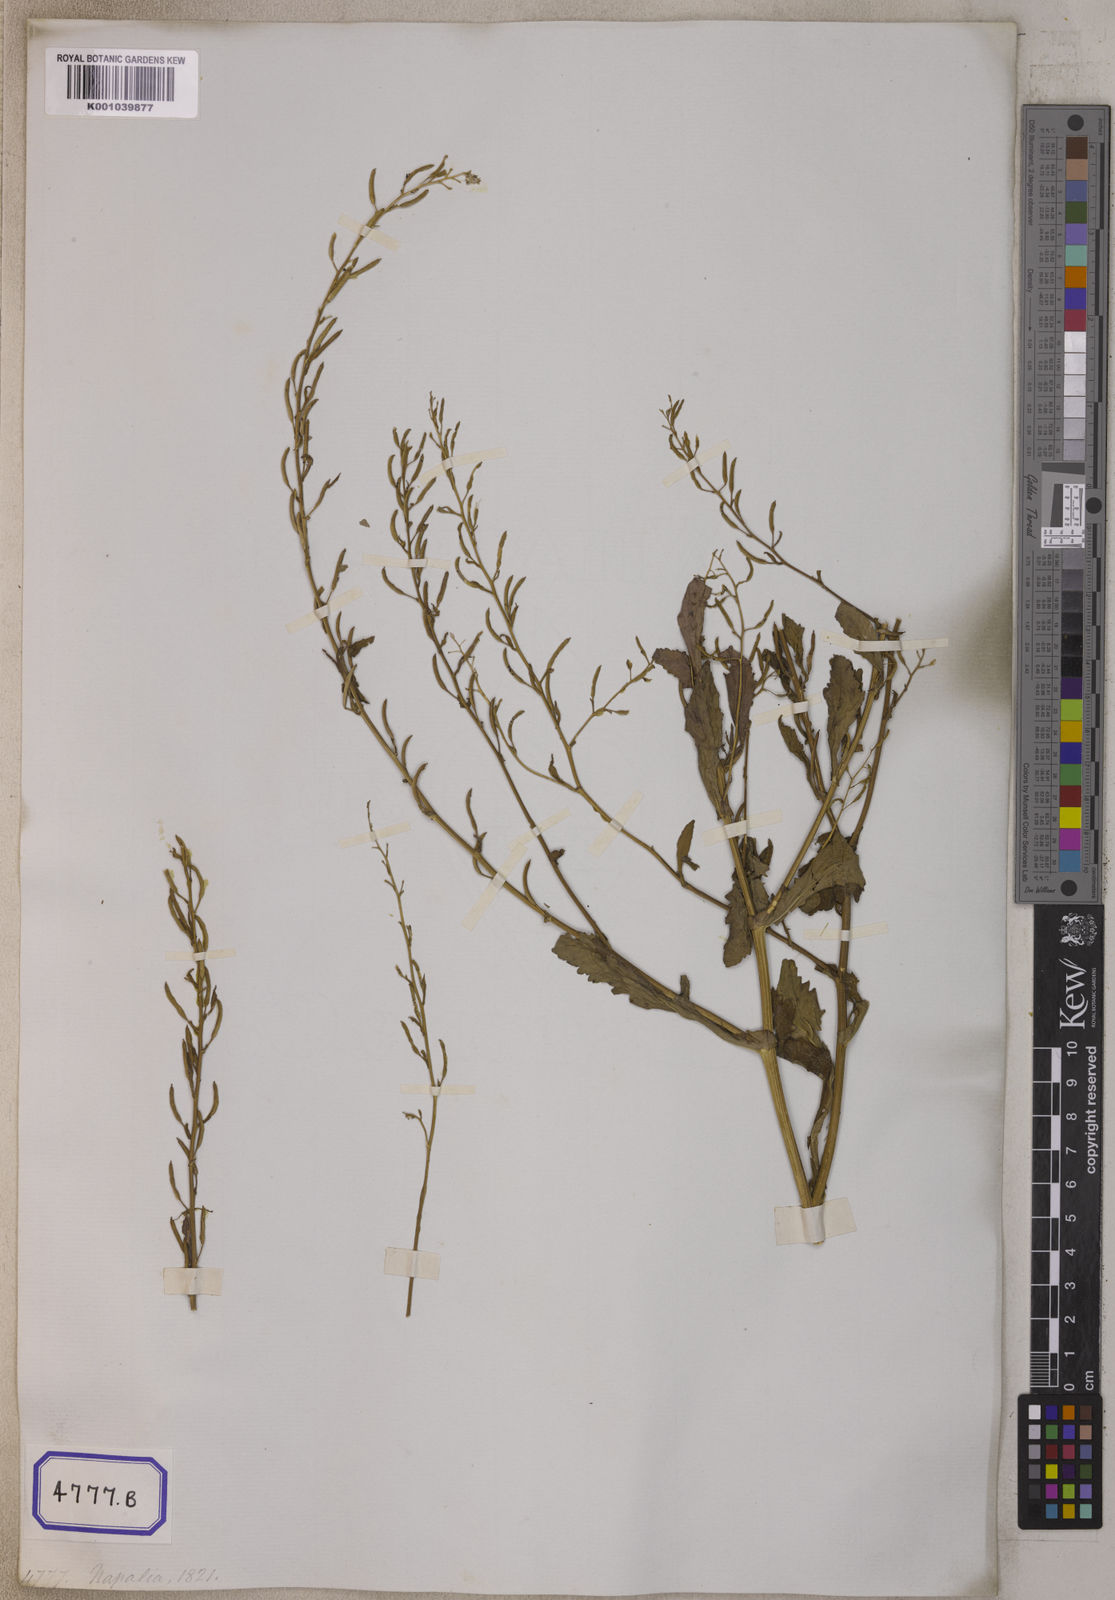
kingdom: Plantae
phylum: Tracheophyta
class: Magnoliopsida
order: Brassicales
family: Brassicaceae
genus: Nasturtium
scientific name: Nasturtium
